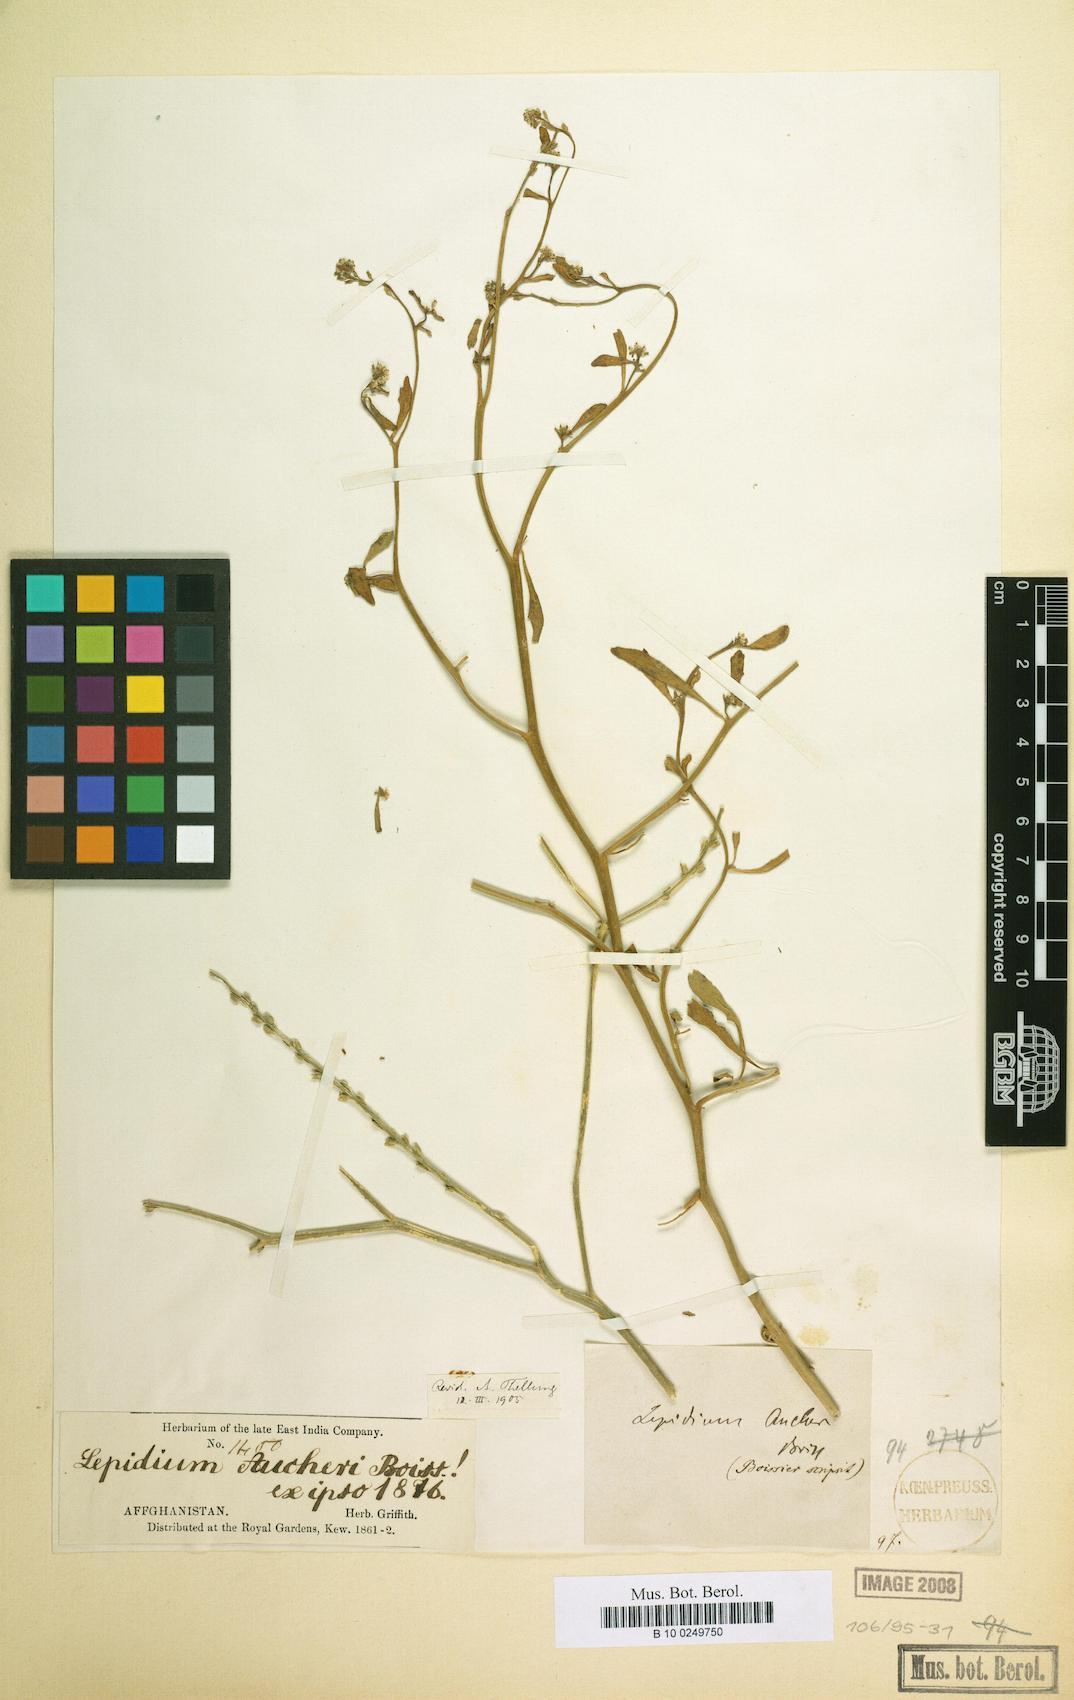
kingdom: Plantae
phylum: Tracheophyta
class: Magnoliopsida
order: Brassicales
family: Brassicaceae
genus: Lepidium
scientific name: Lepidium aucheri
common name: Aucher's peppergrass
